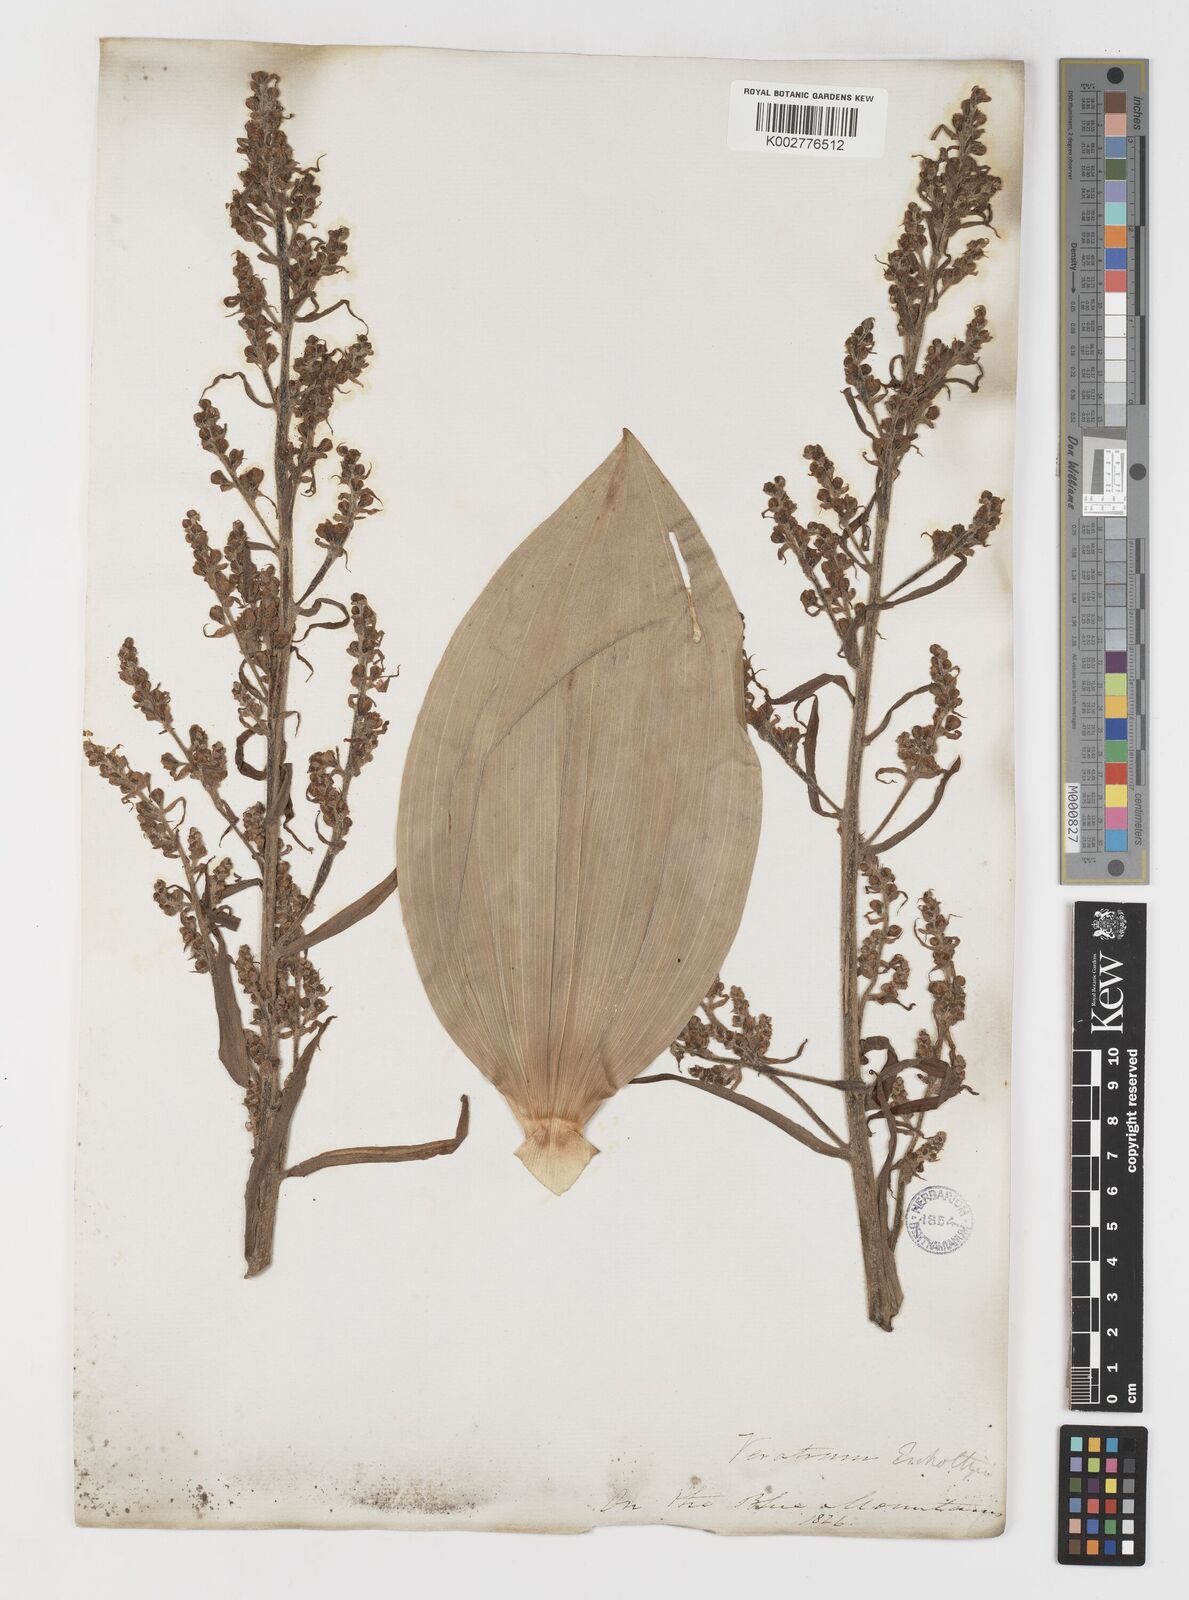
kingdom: Plantae
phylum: Tracheophyta
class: Liliopsida
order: Liliales
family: Melanthiaceae
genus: Veratrum
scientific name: Veratrum viride
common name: American false hellebore
